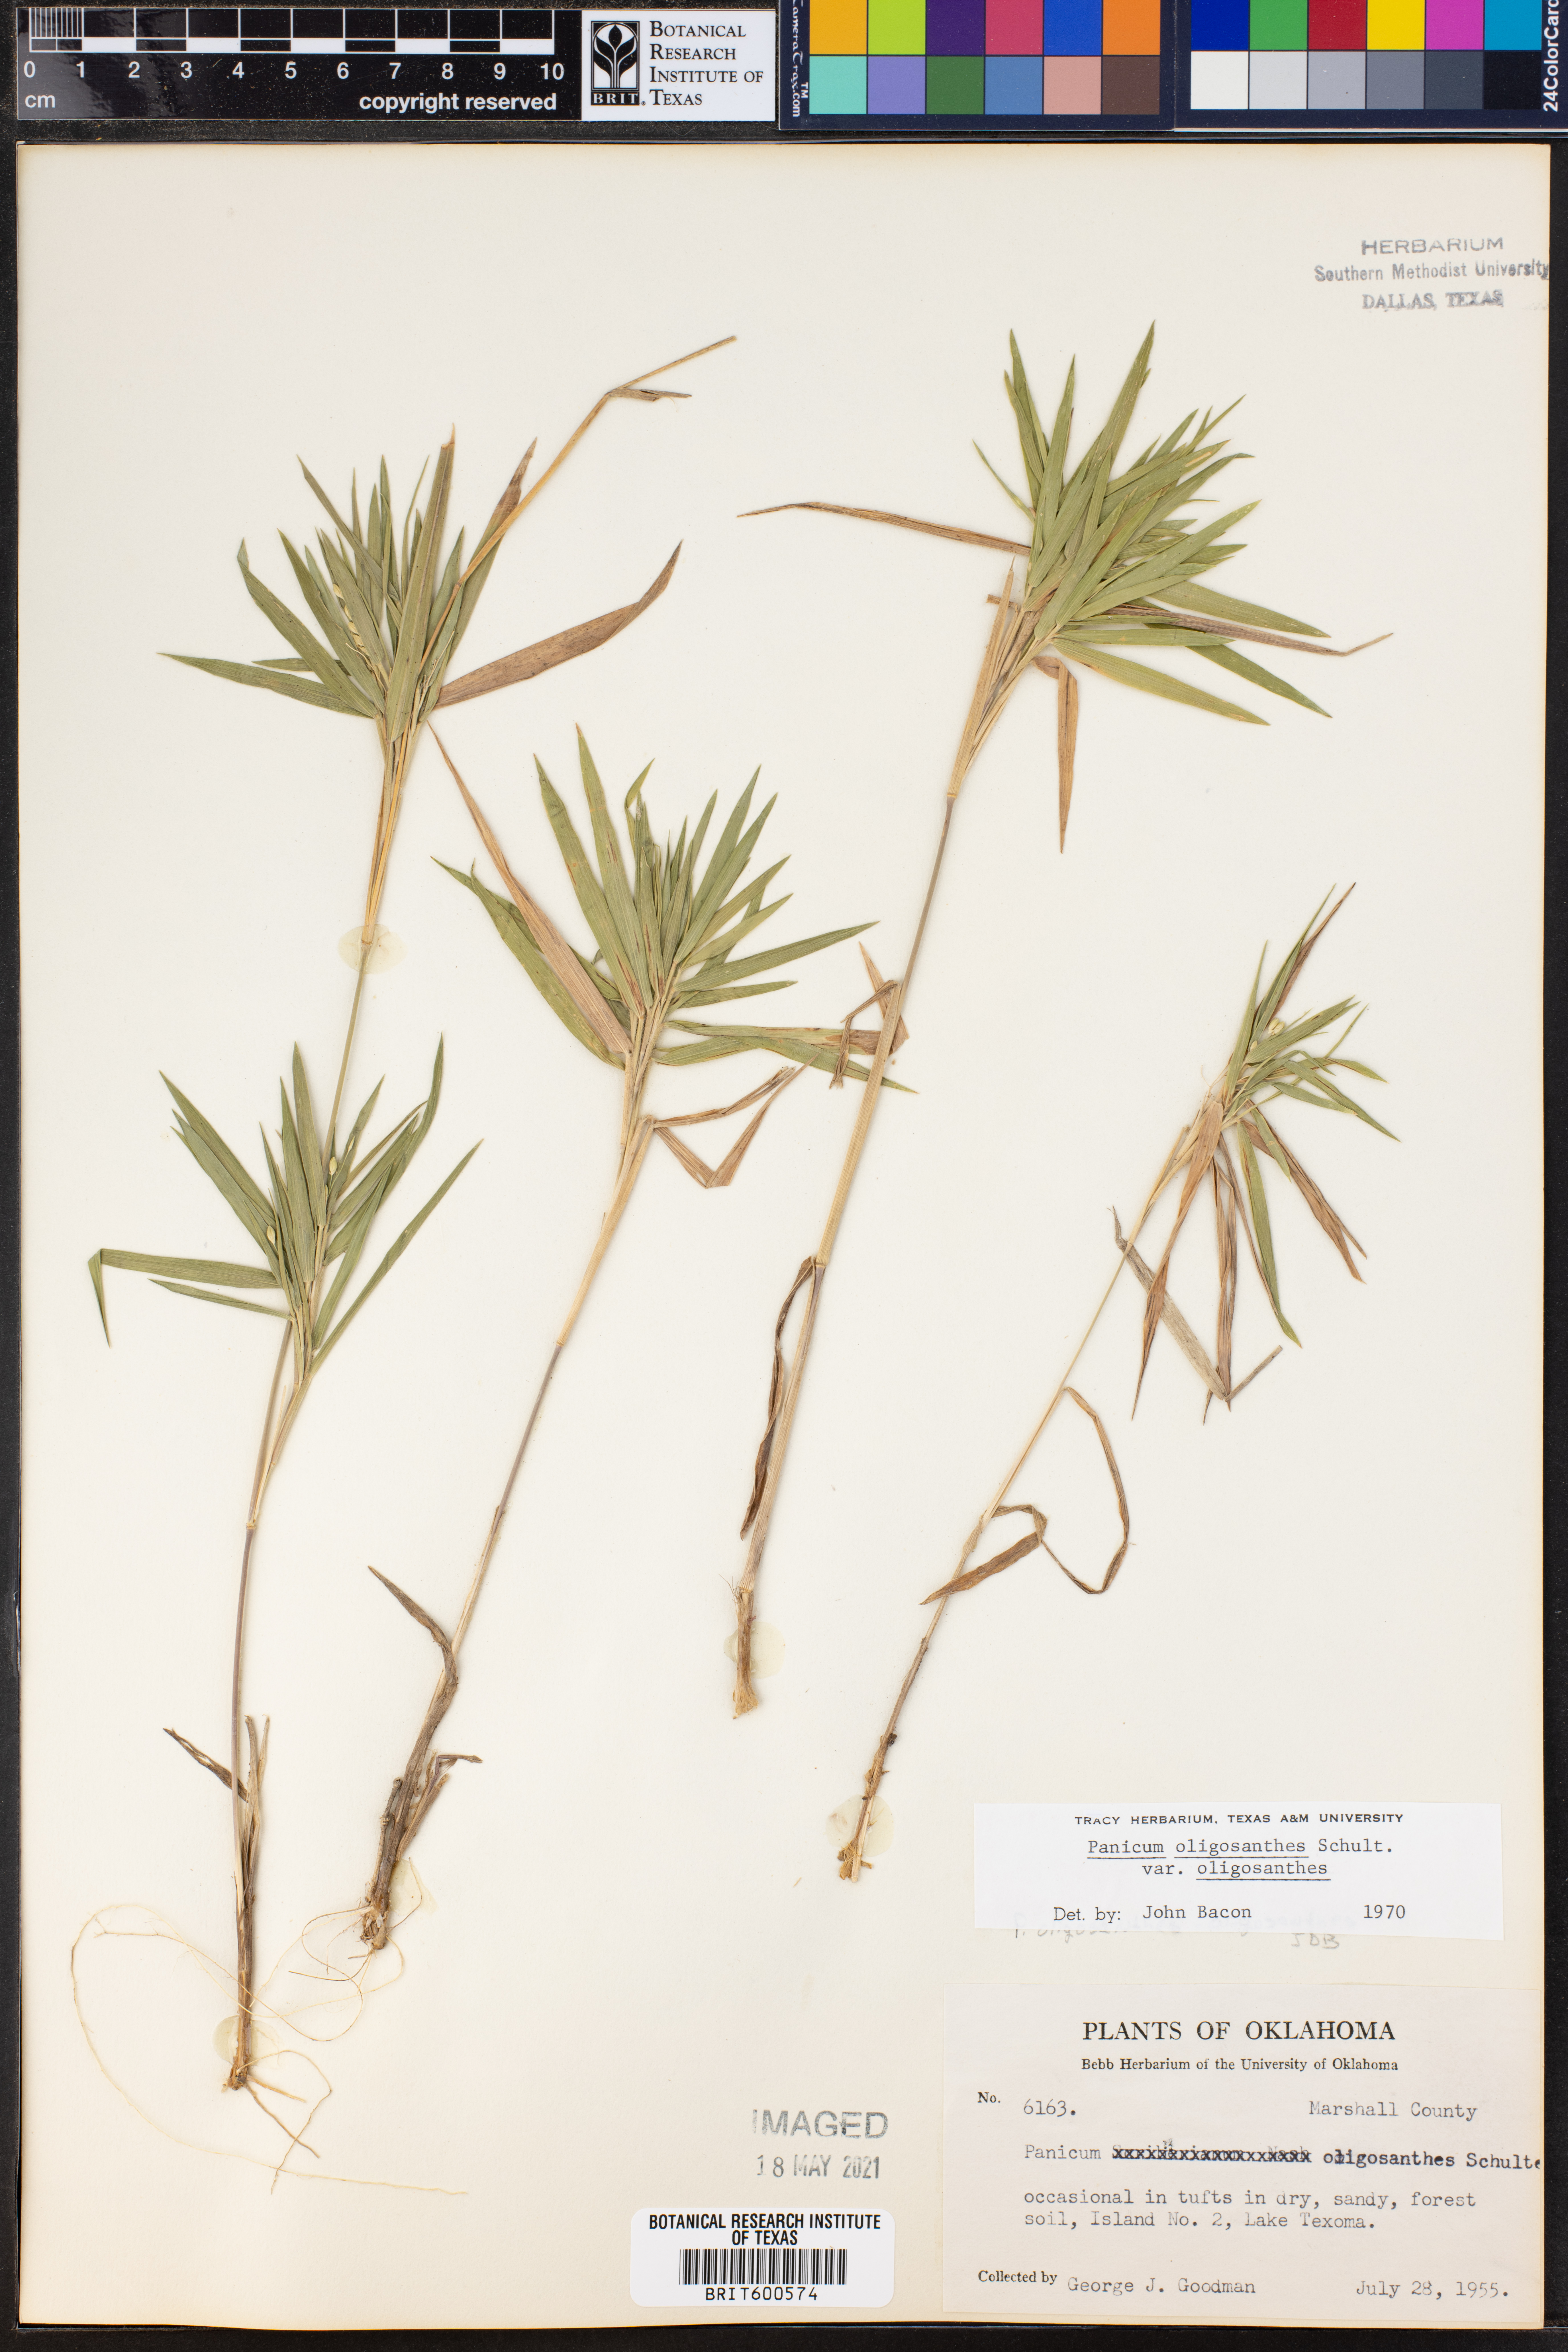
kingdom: Plantae
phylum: Tracheophyta
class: Liliopsida
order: Poales
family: Poaceae
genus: Dichanthelium
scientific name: Dichanthelium oligosanthes
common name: Few-anther obscuregrass
